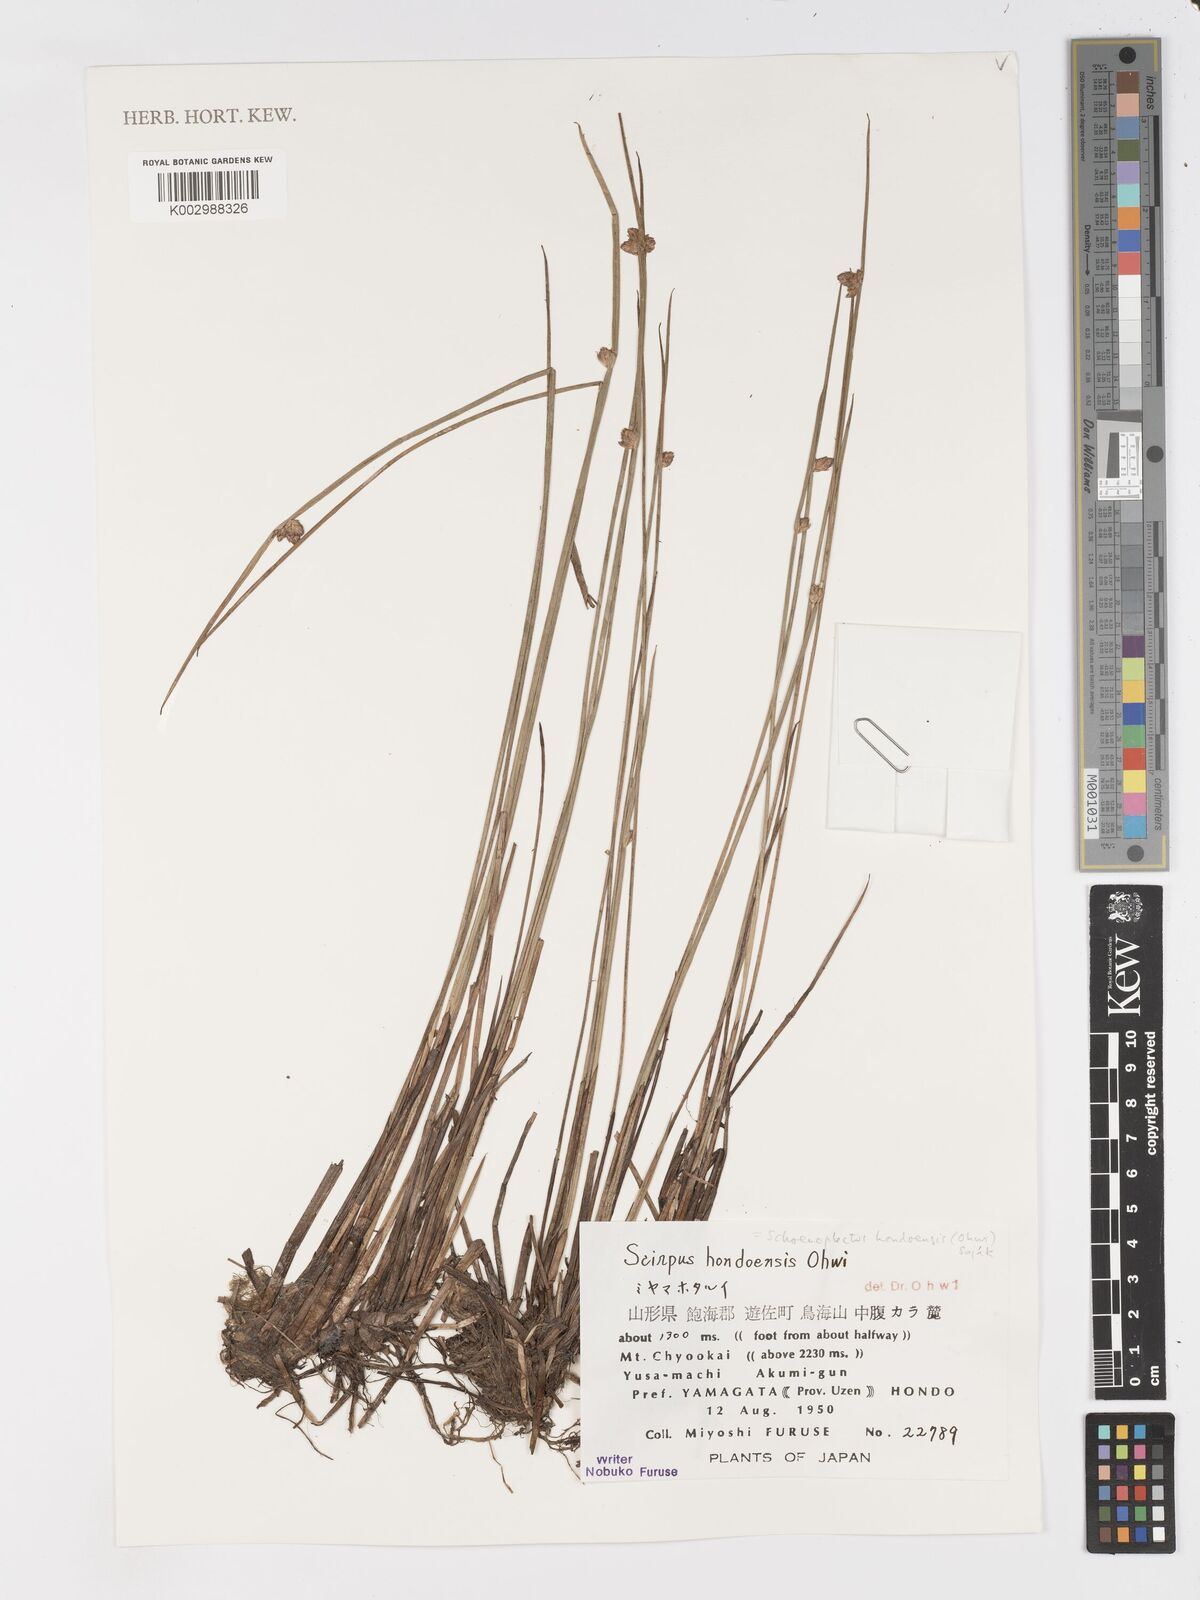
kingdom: Plantae
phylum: Tracheophyta
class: Liliopsida
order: Poales
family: Cyperaceae
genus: Schoenoplectiella
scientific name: Schoenoplectiella hondoensis
